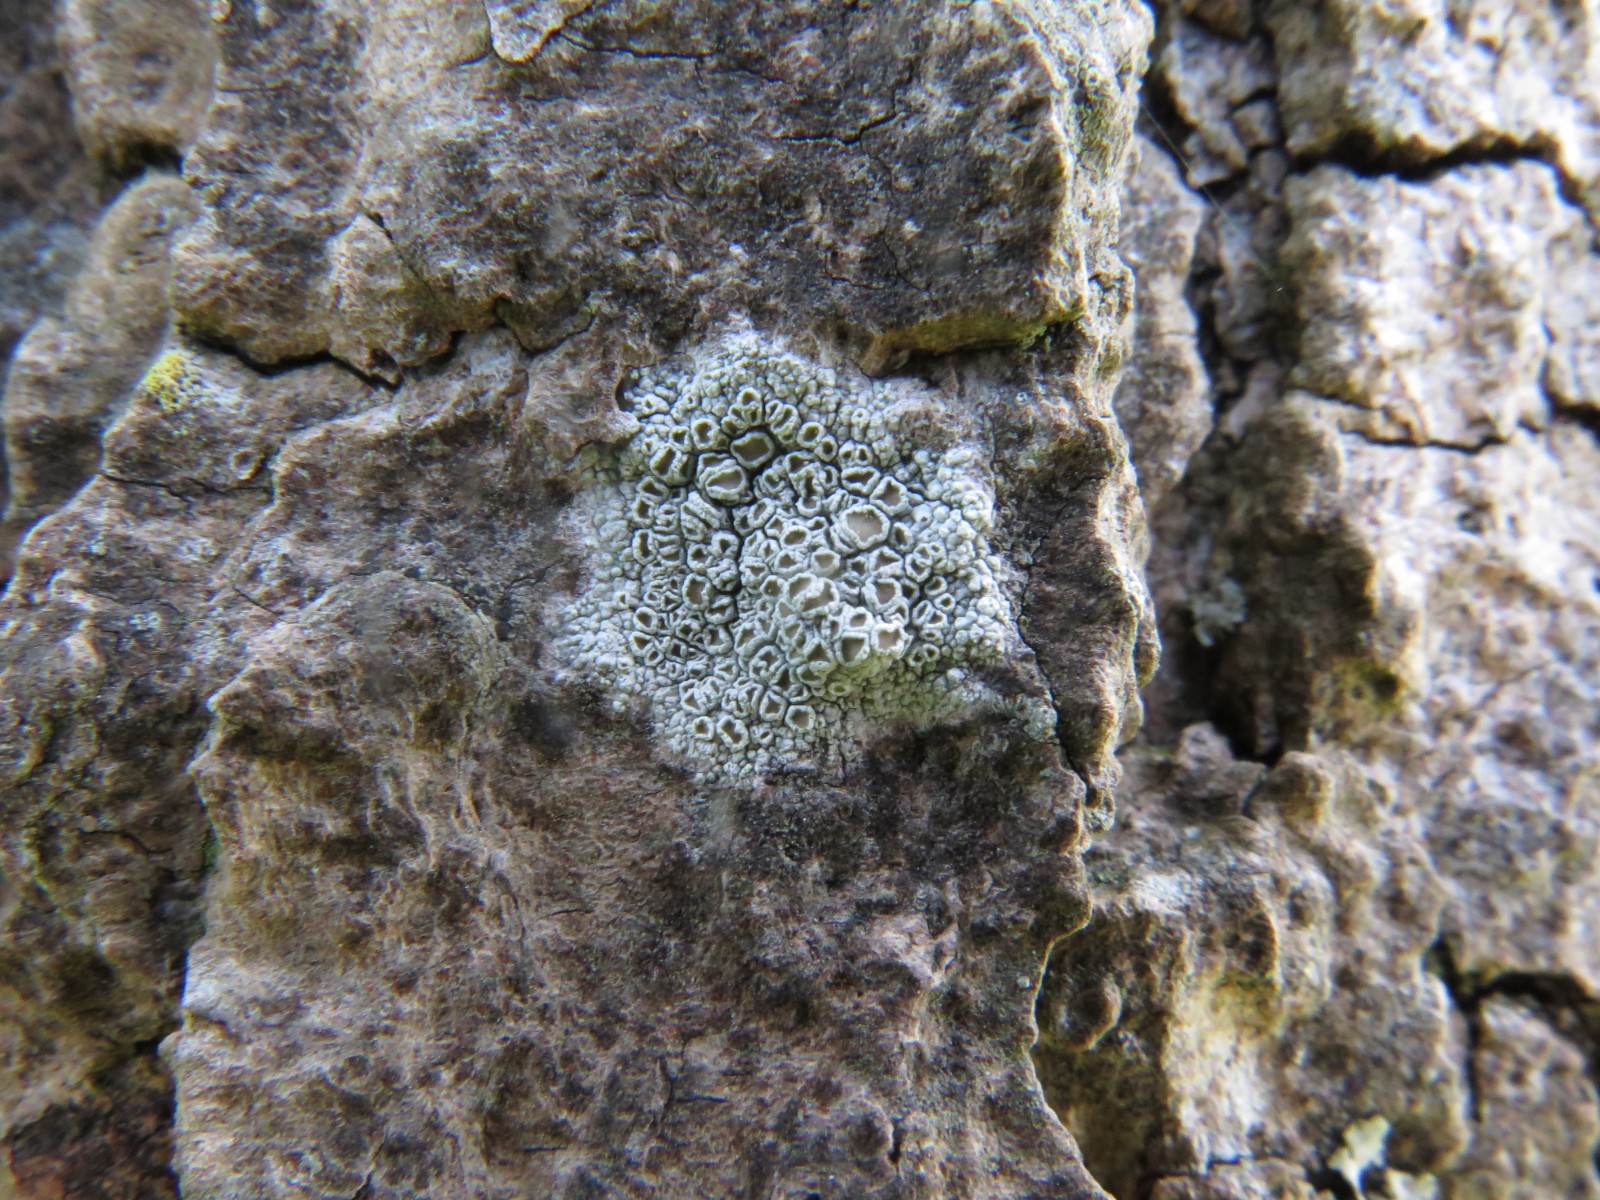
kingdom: Fungi
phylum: Ascomycota
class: Lecanoromycetes
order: Lecanorales
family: Lecanoraceae
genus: Lecanora
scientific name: Lecanora chlarotera
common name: brun kantskivelav
